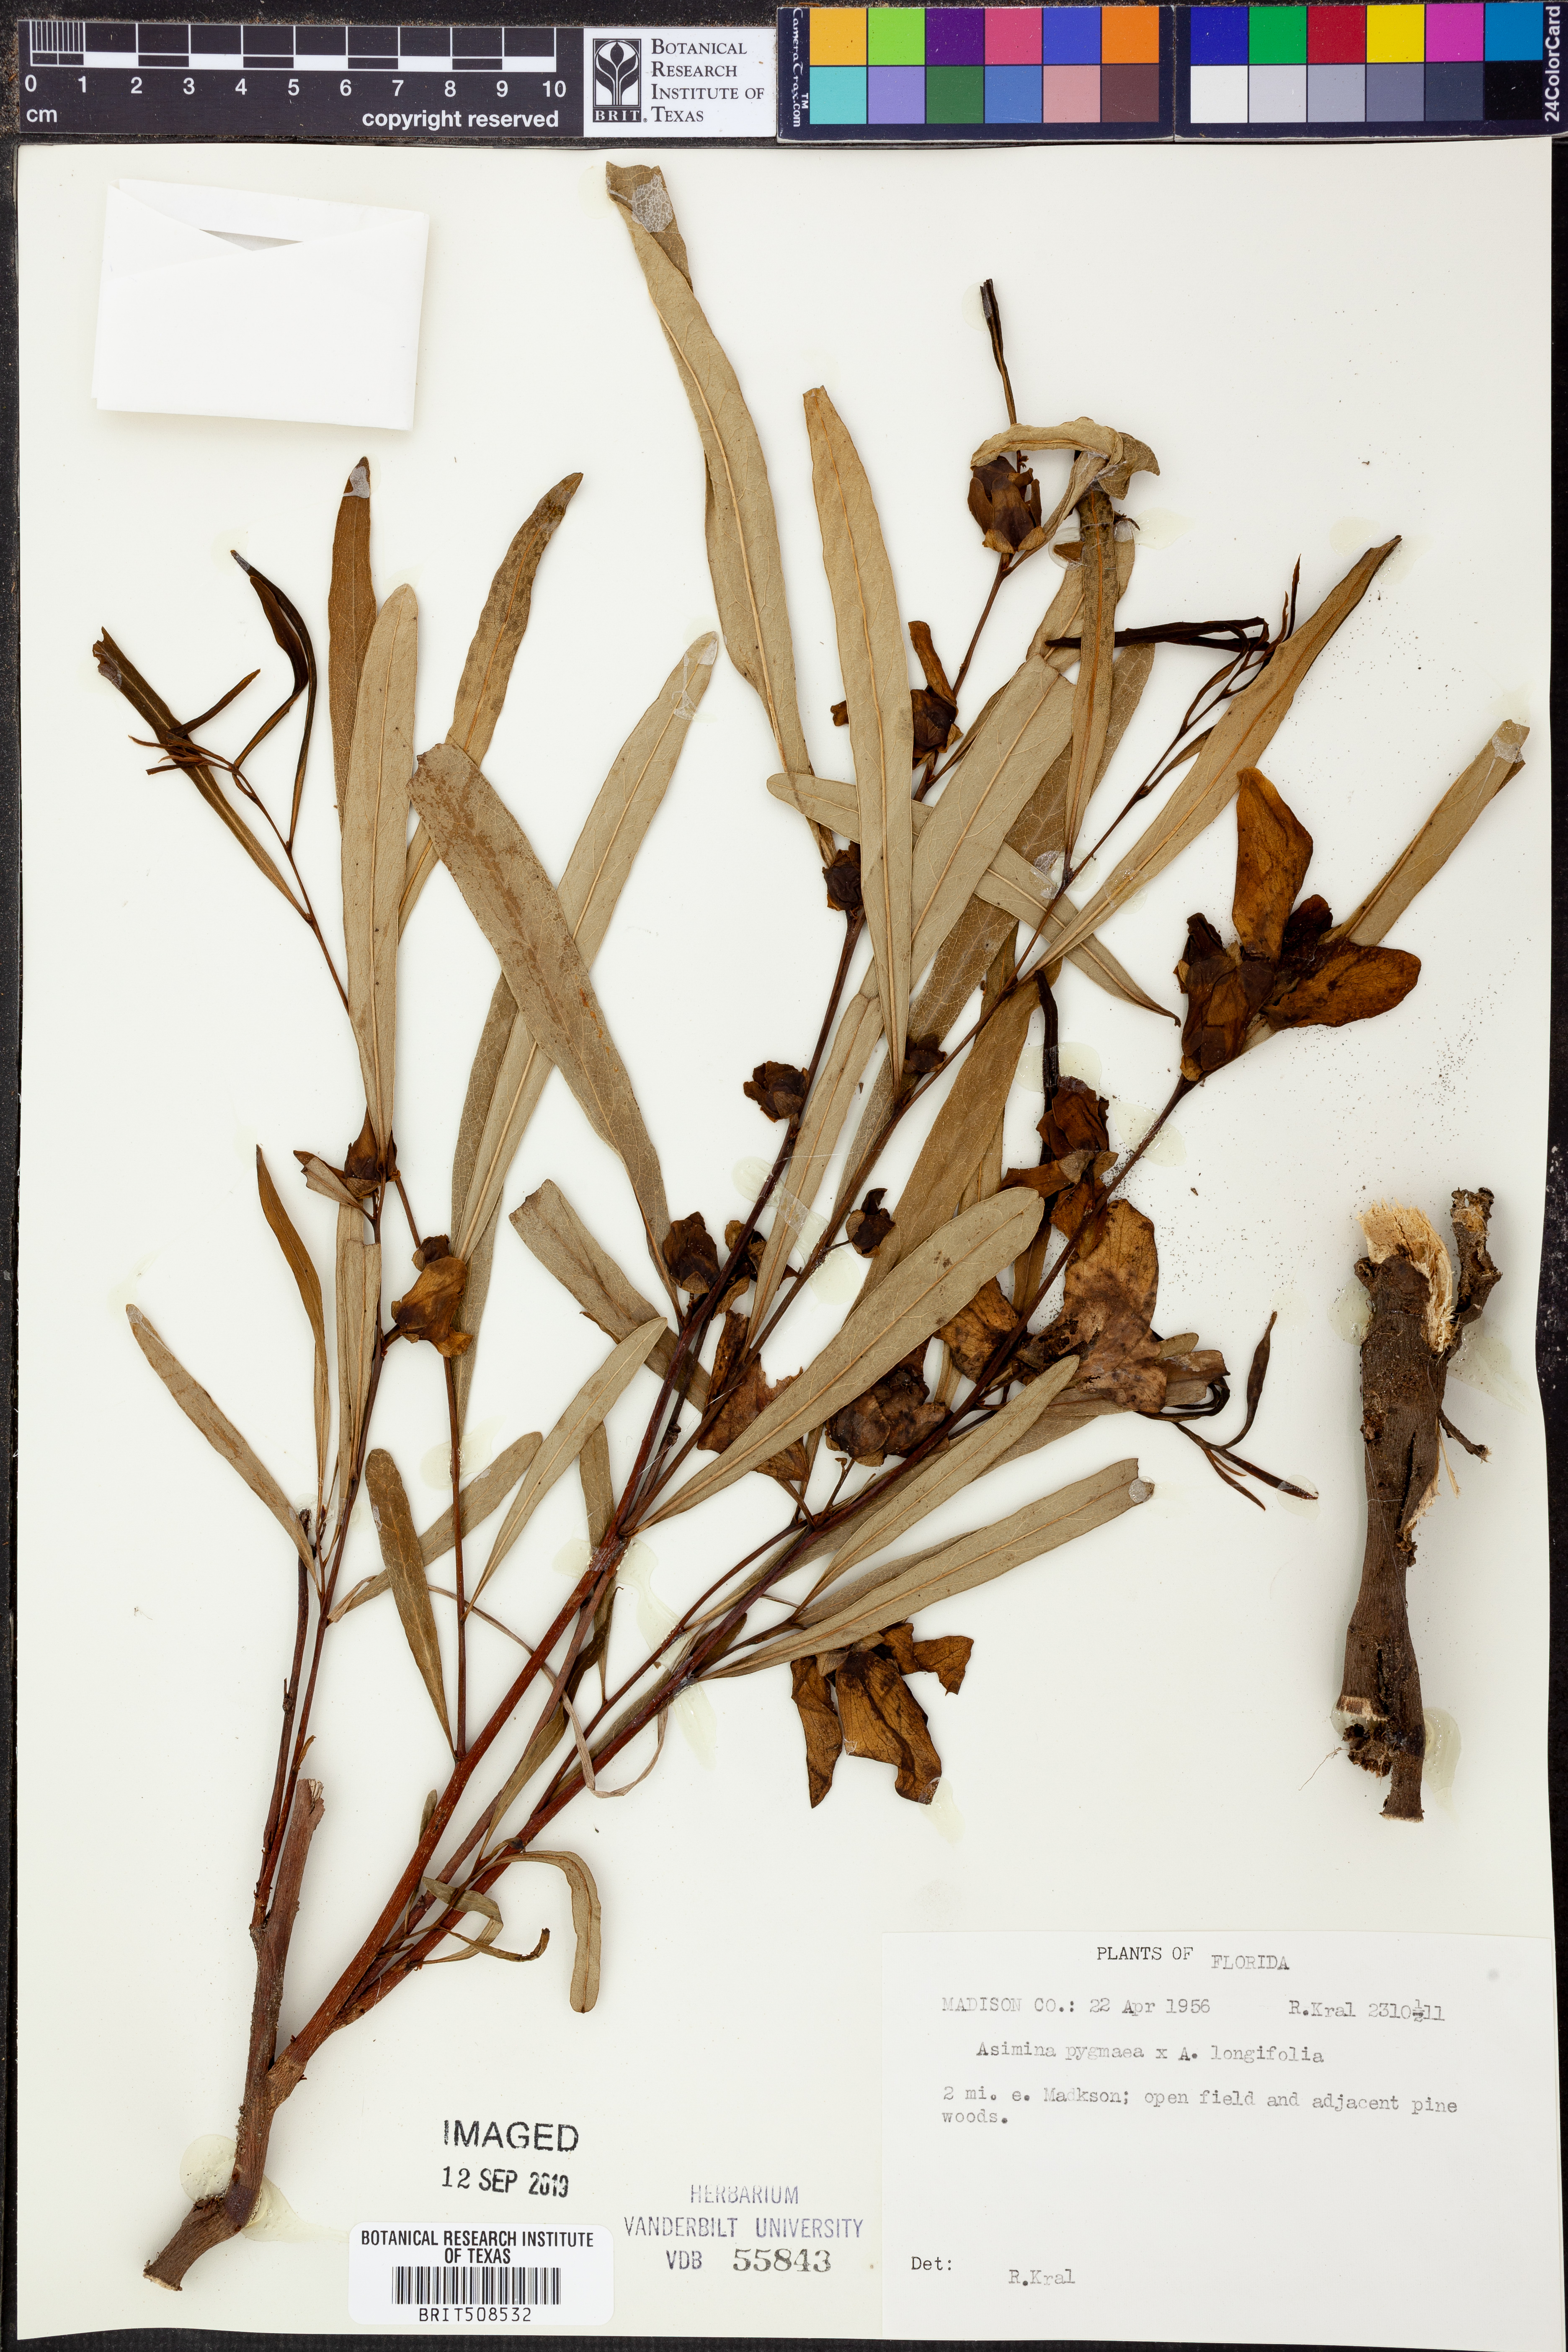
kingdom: Plantae
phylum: Tracheophyta
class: Magnoliopsida
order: Magnoliales
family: Annonaceae
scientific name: Annonaceae
